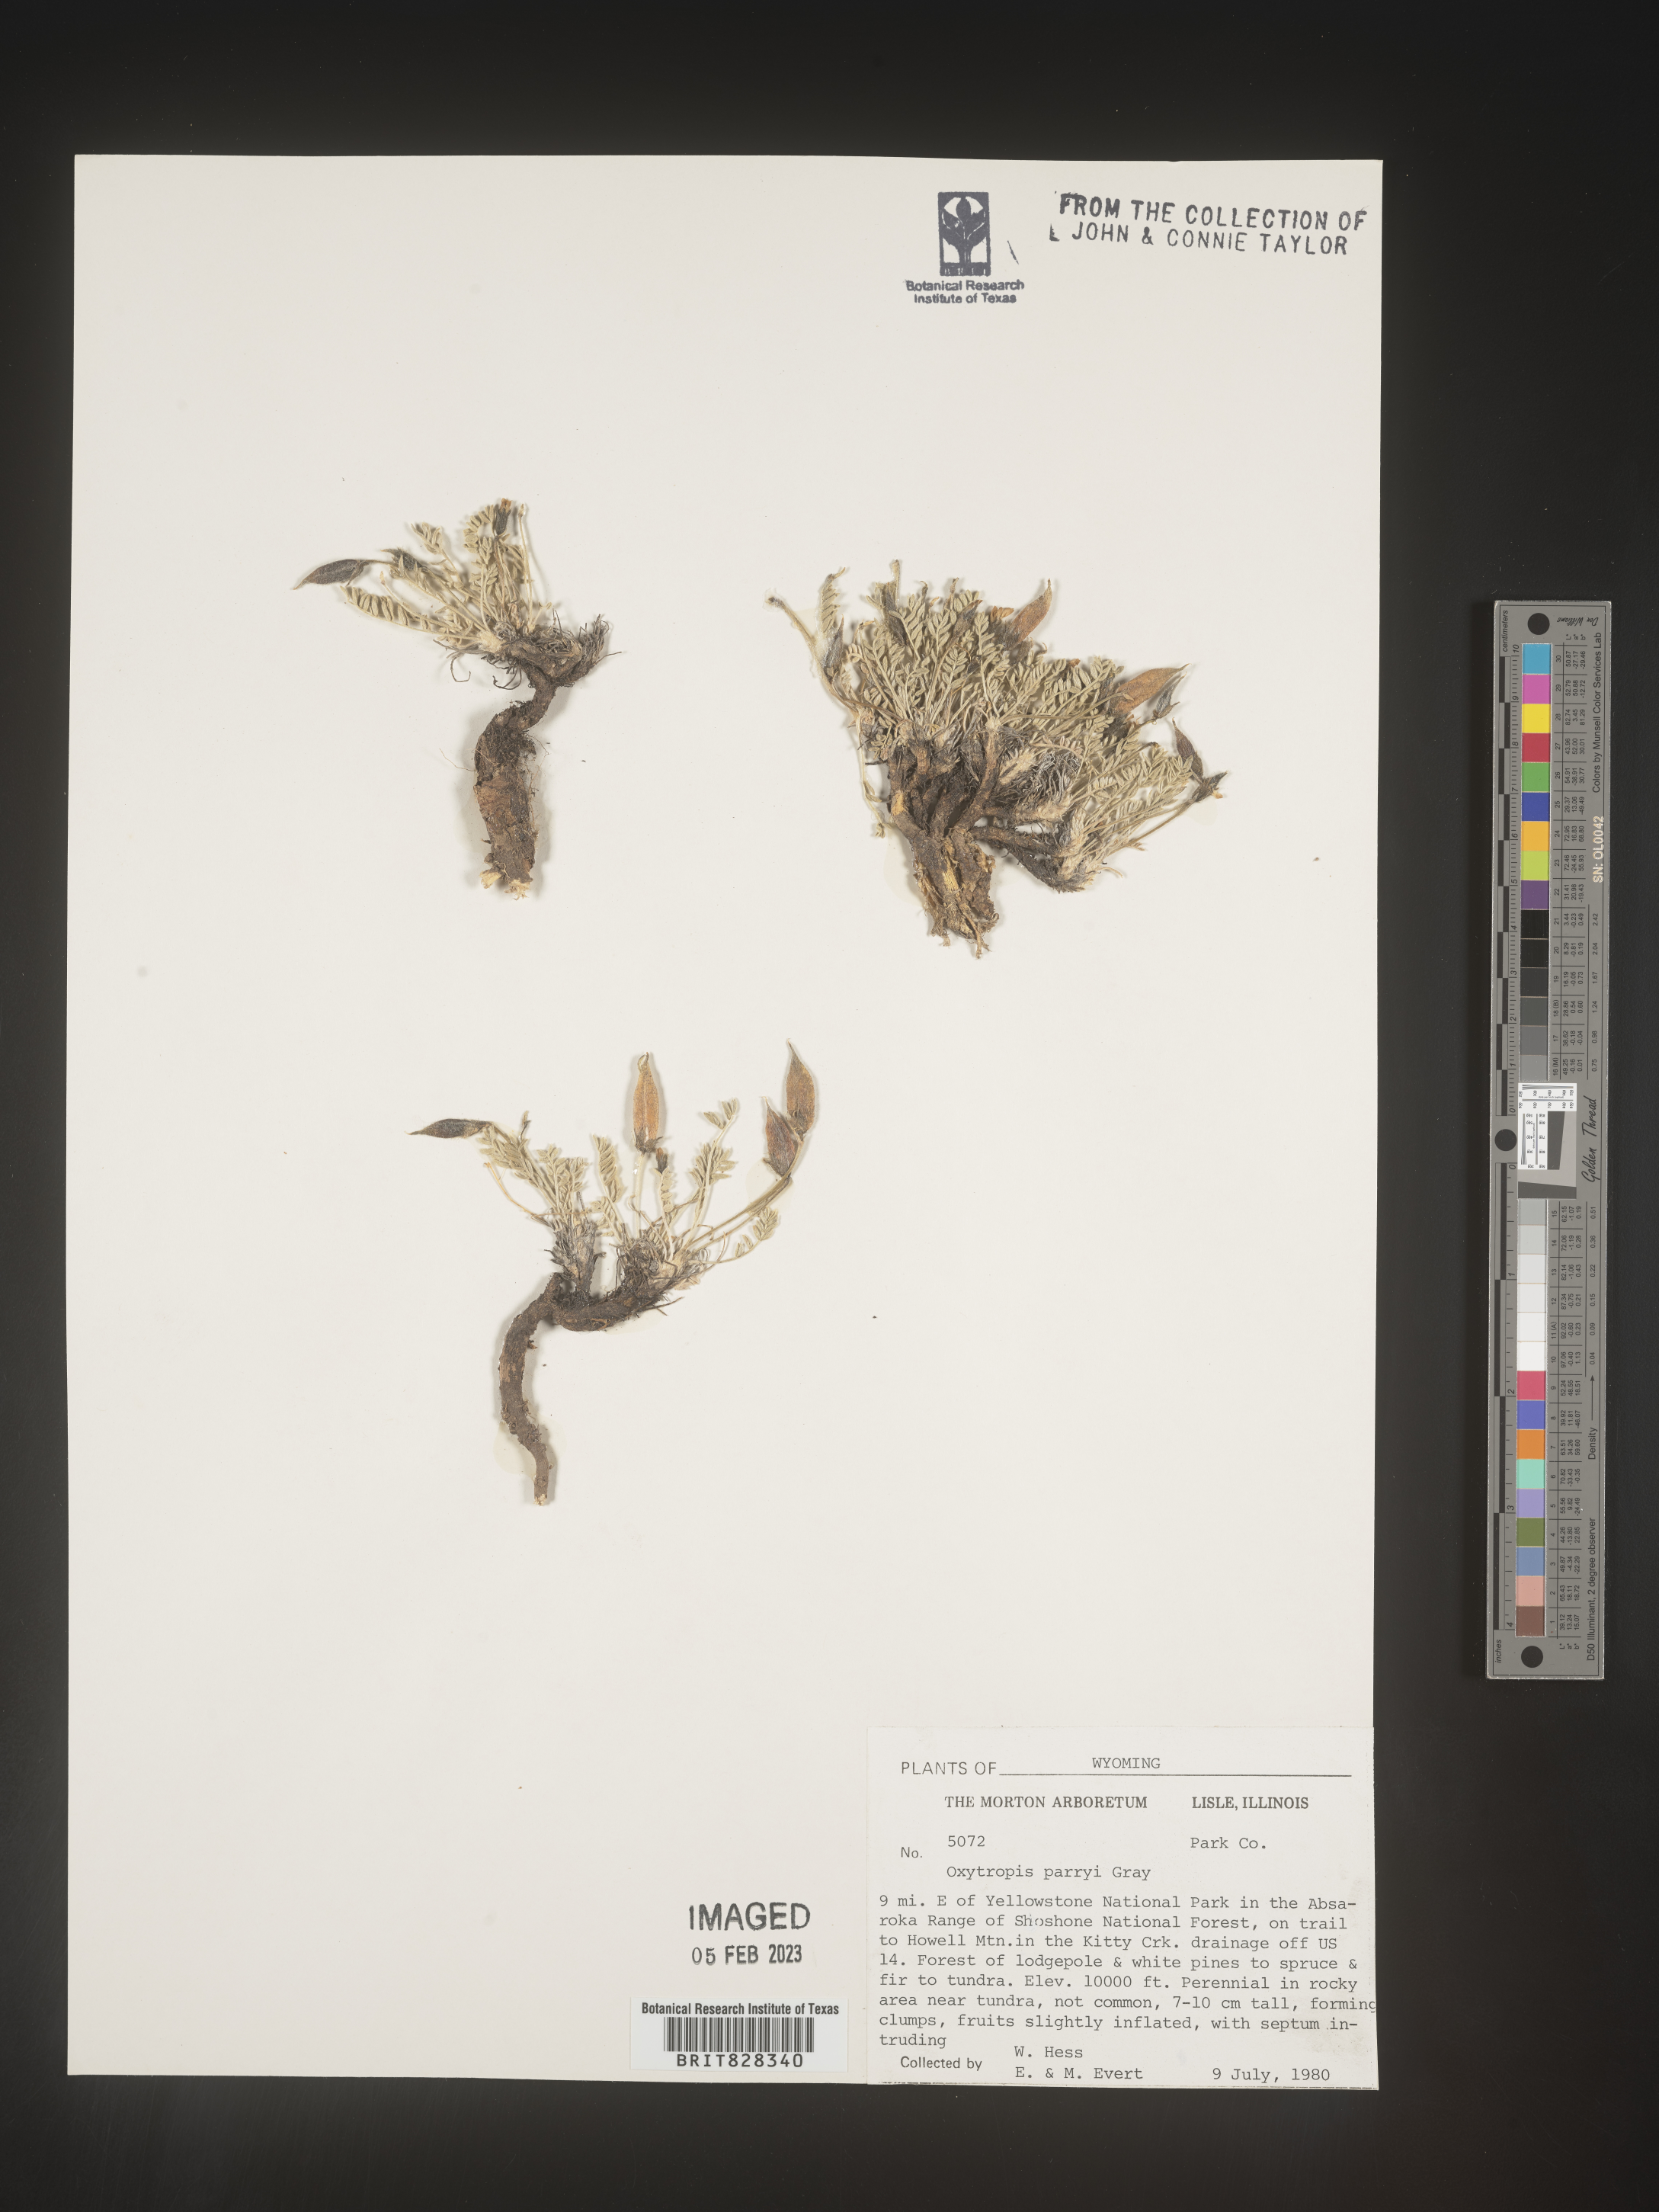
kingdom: Plantae
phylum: Tracheophyta
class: Magnoliopsida
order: Fabales
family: Fabaceae
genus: Oxytropis
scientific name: Oxytropis
